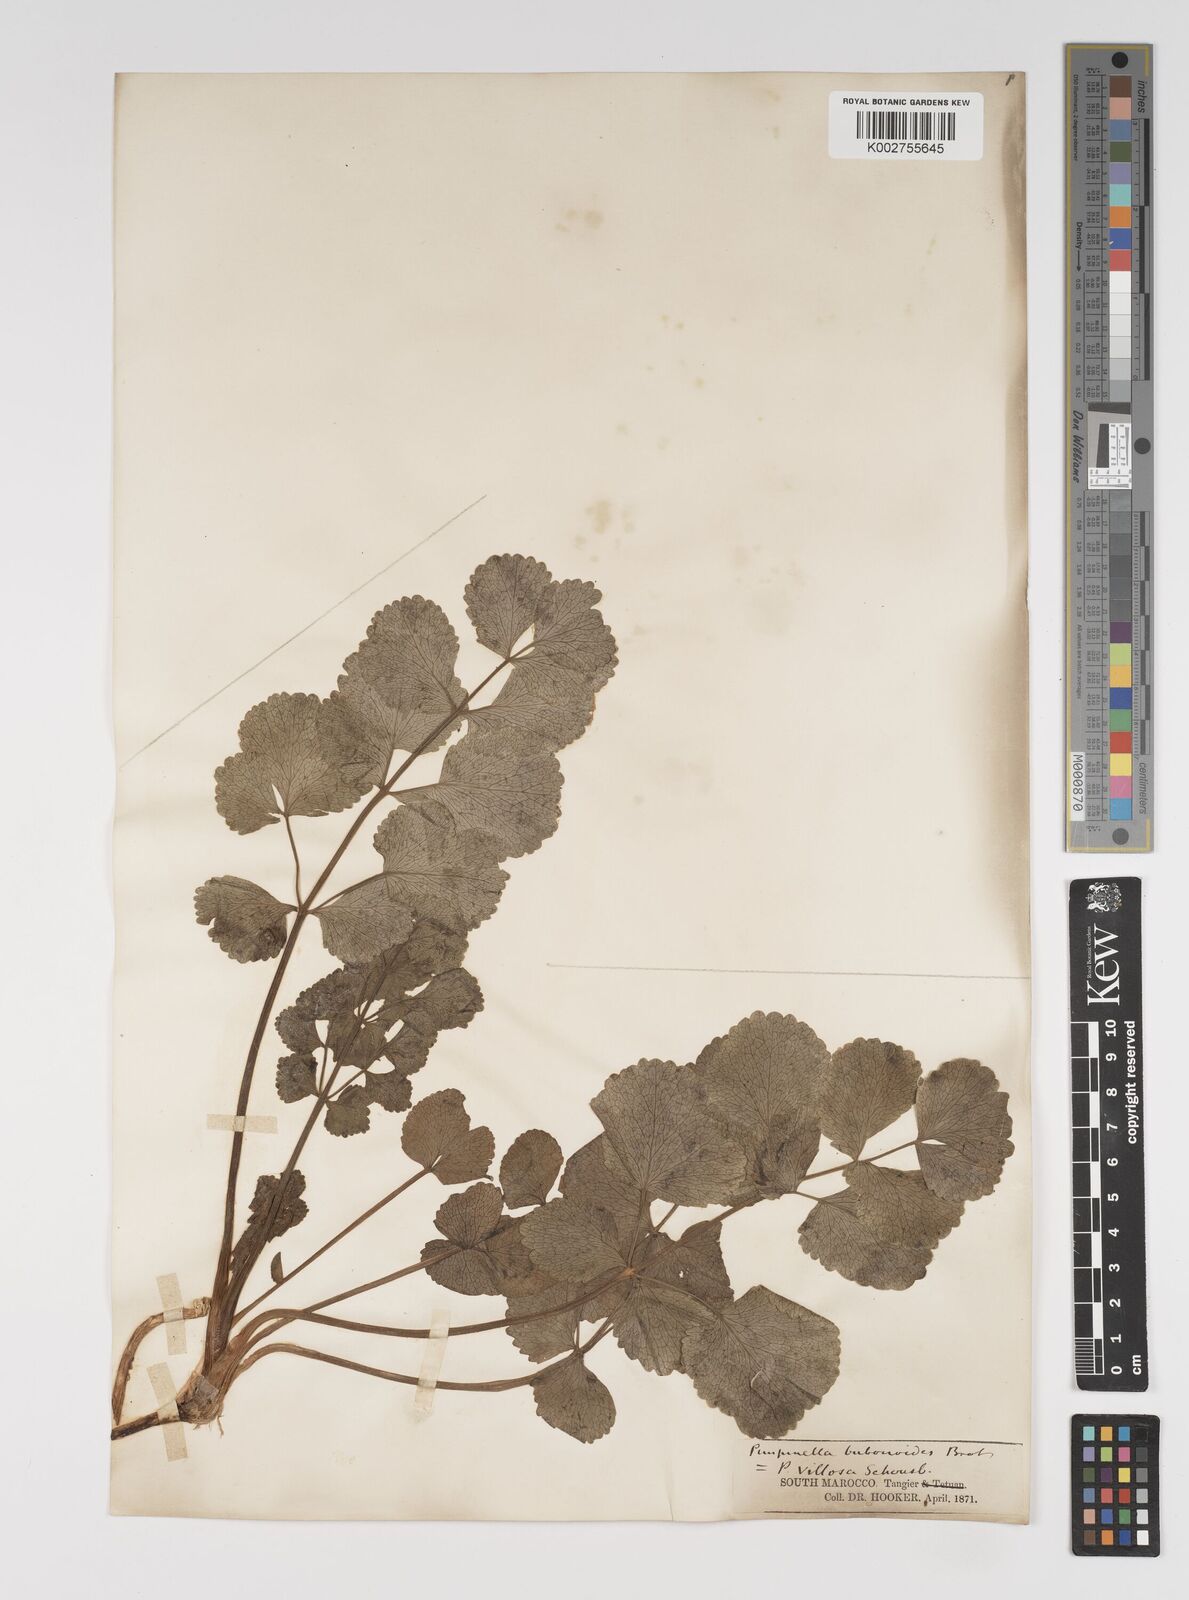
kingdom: Plantae
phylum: Tracheophyta
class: Magnoliopsida
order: Apiales
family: Apiaceae
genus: Pimpinella
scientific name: Pimpinella villosa
